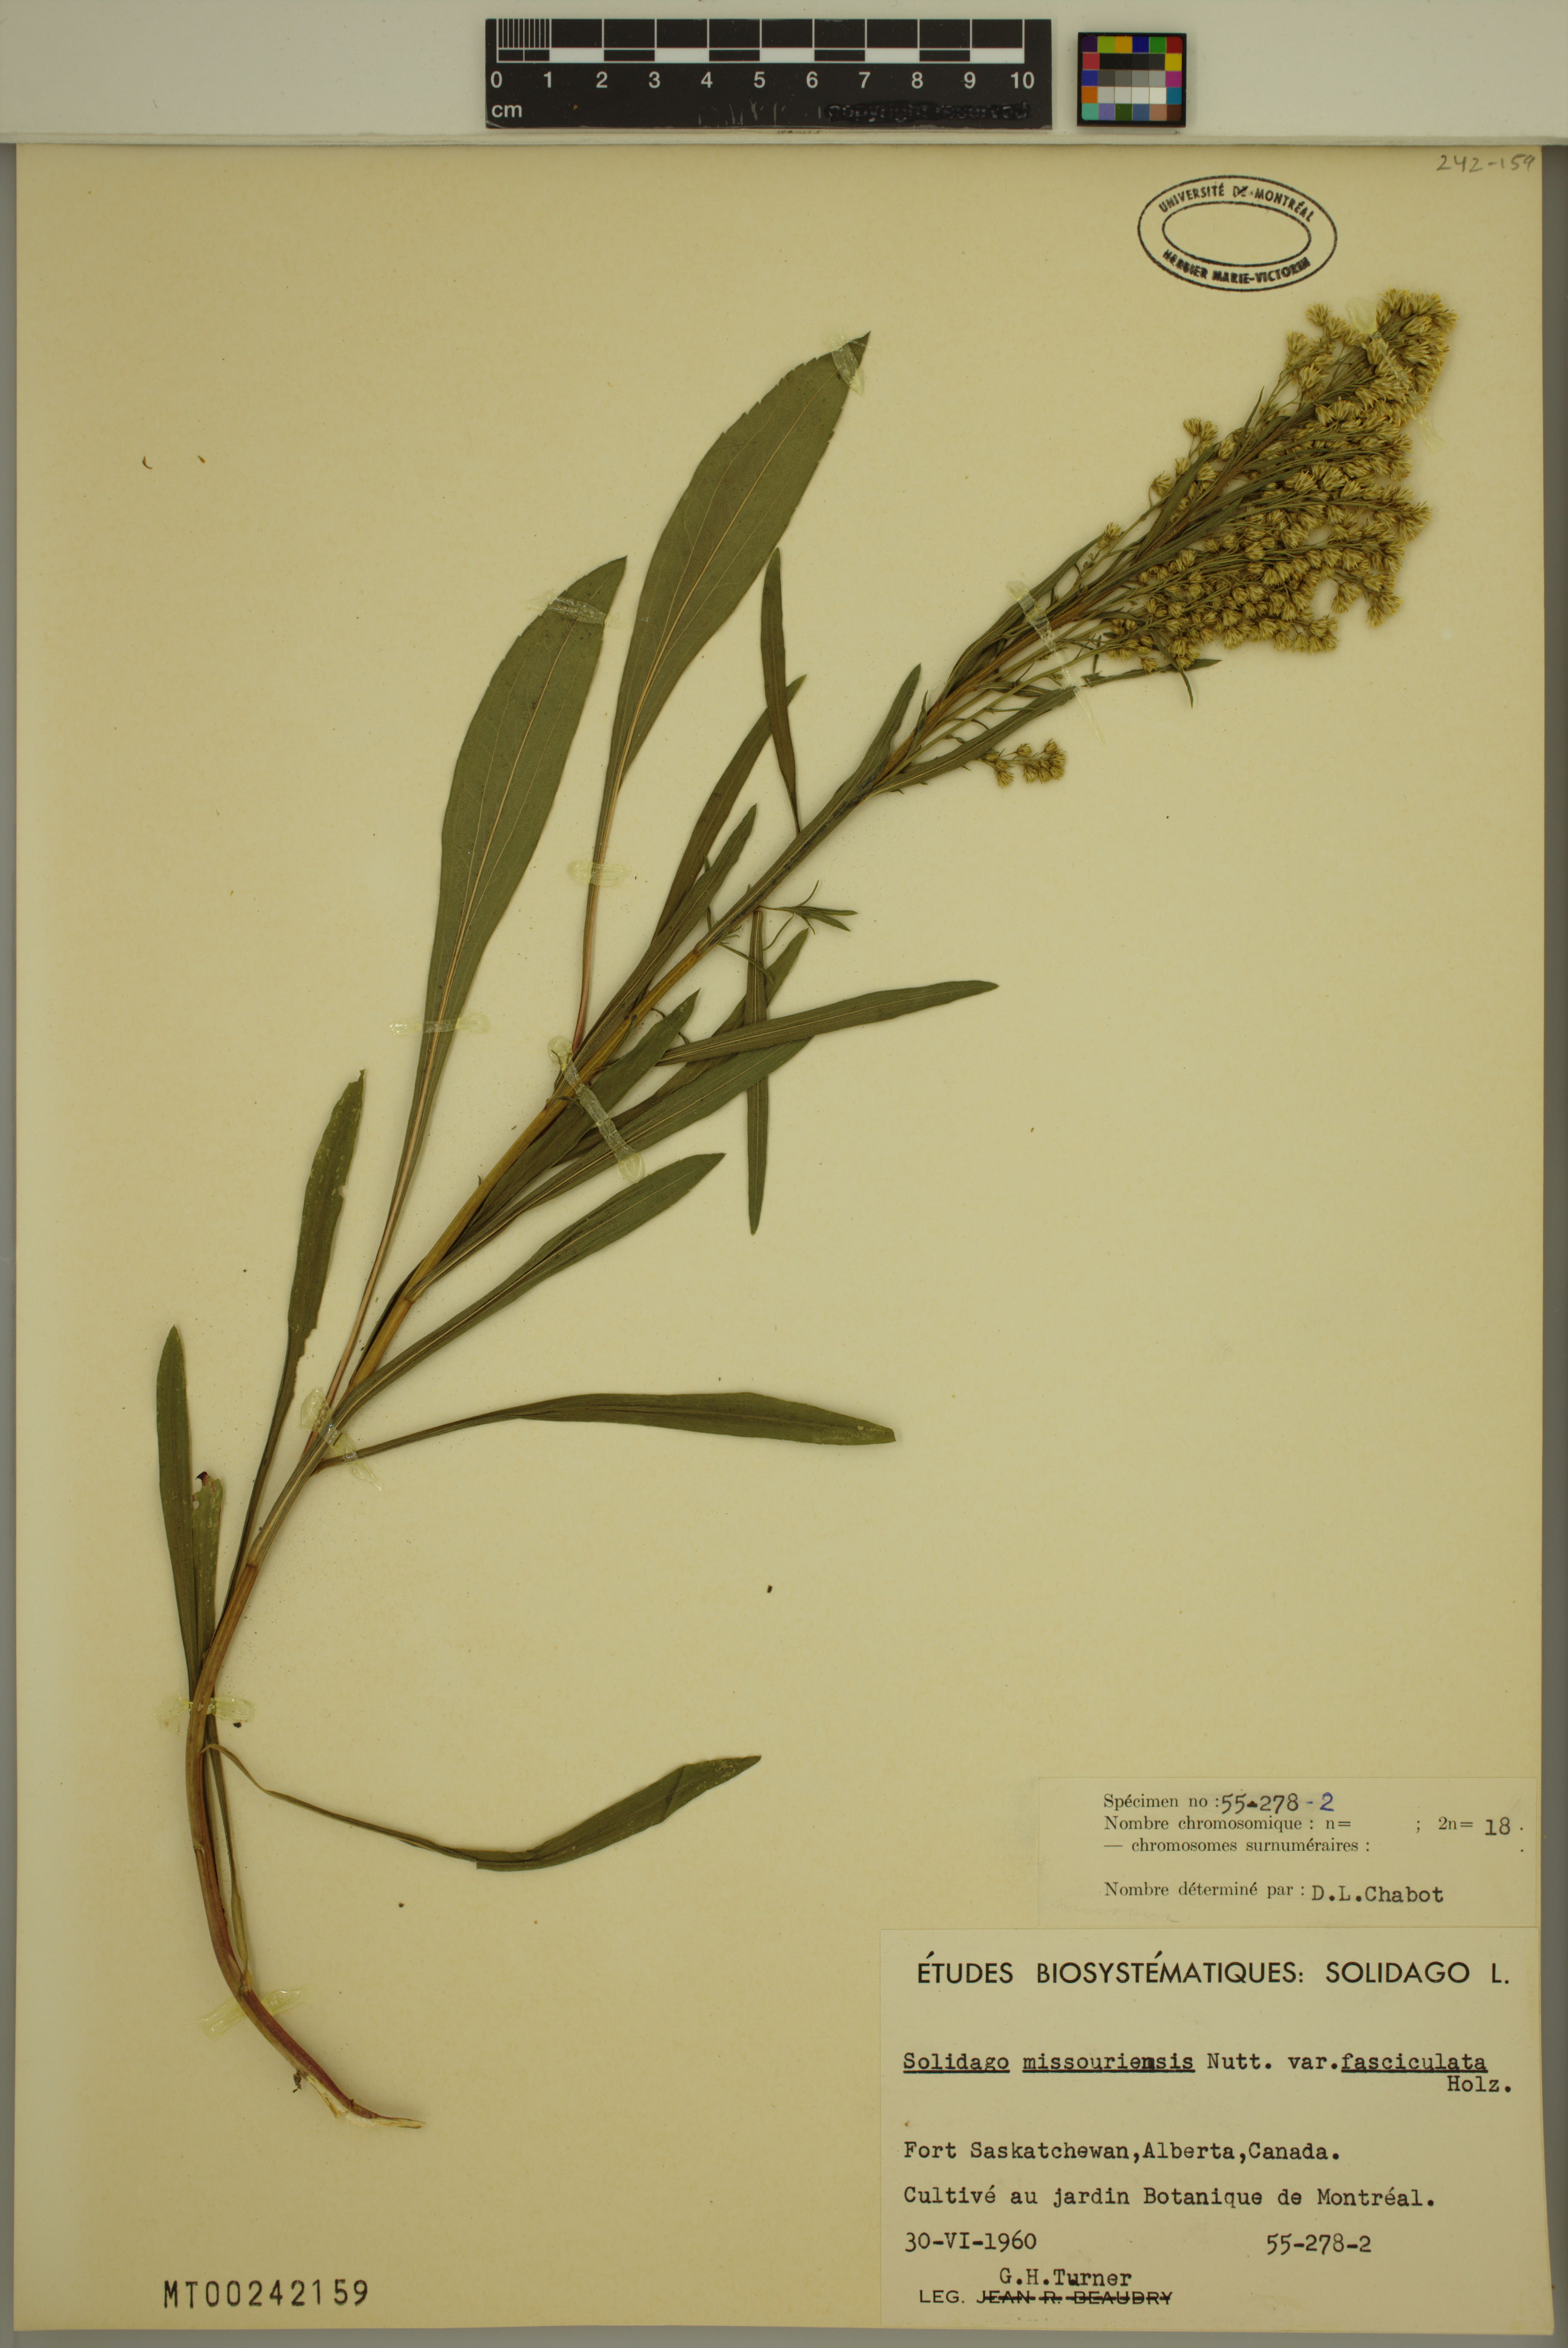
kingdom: Plantae
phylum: Tracheophyta
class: Magnoliopsida
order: Asterales
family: Asteraceae
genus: Solidago
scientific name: Solidago missouriensis
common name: Prairie goldenrod
